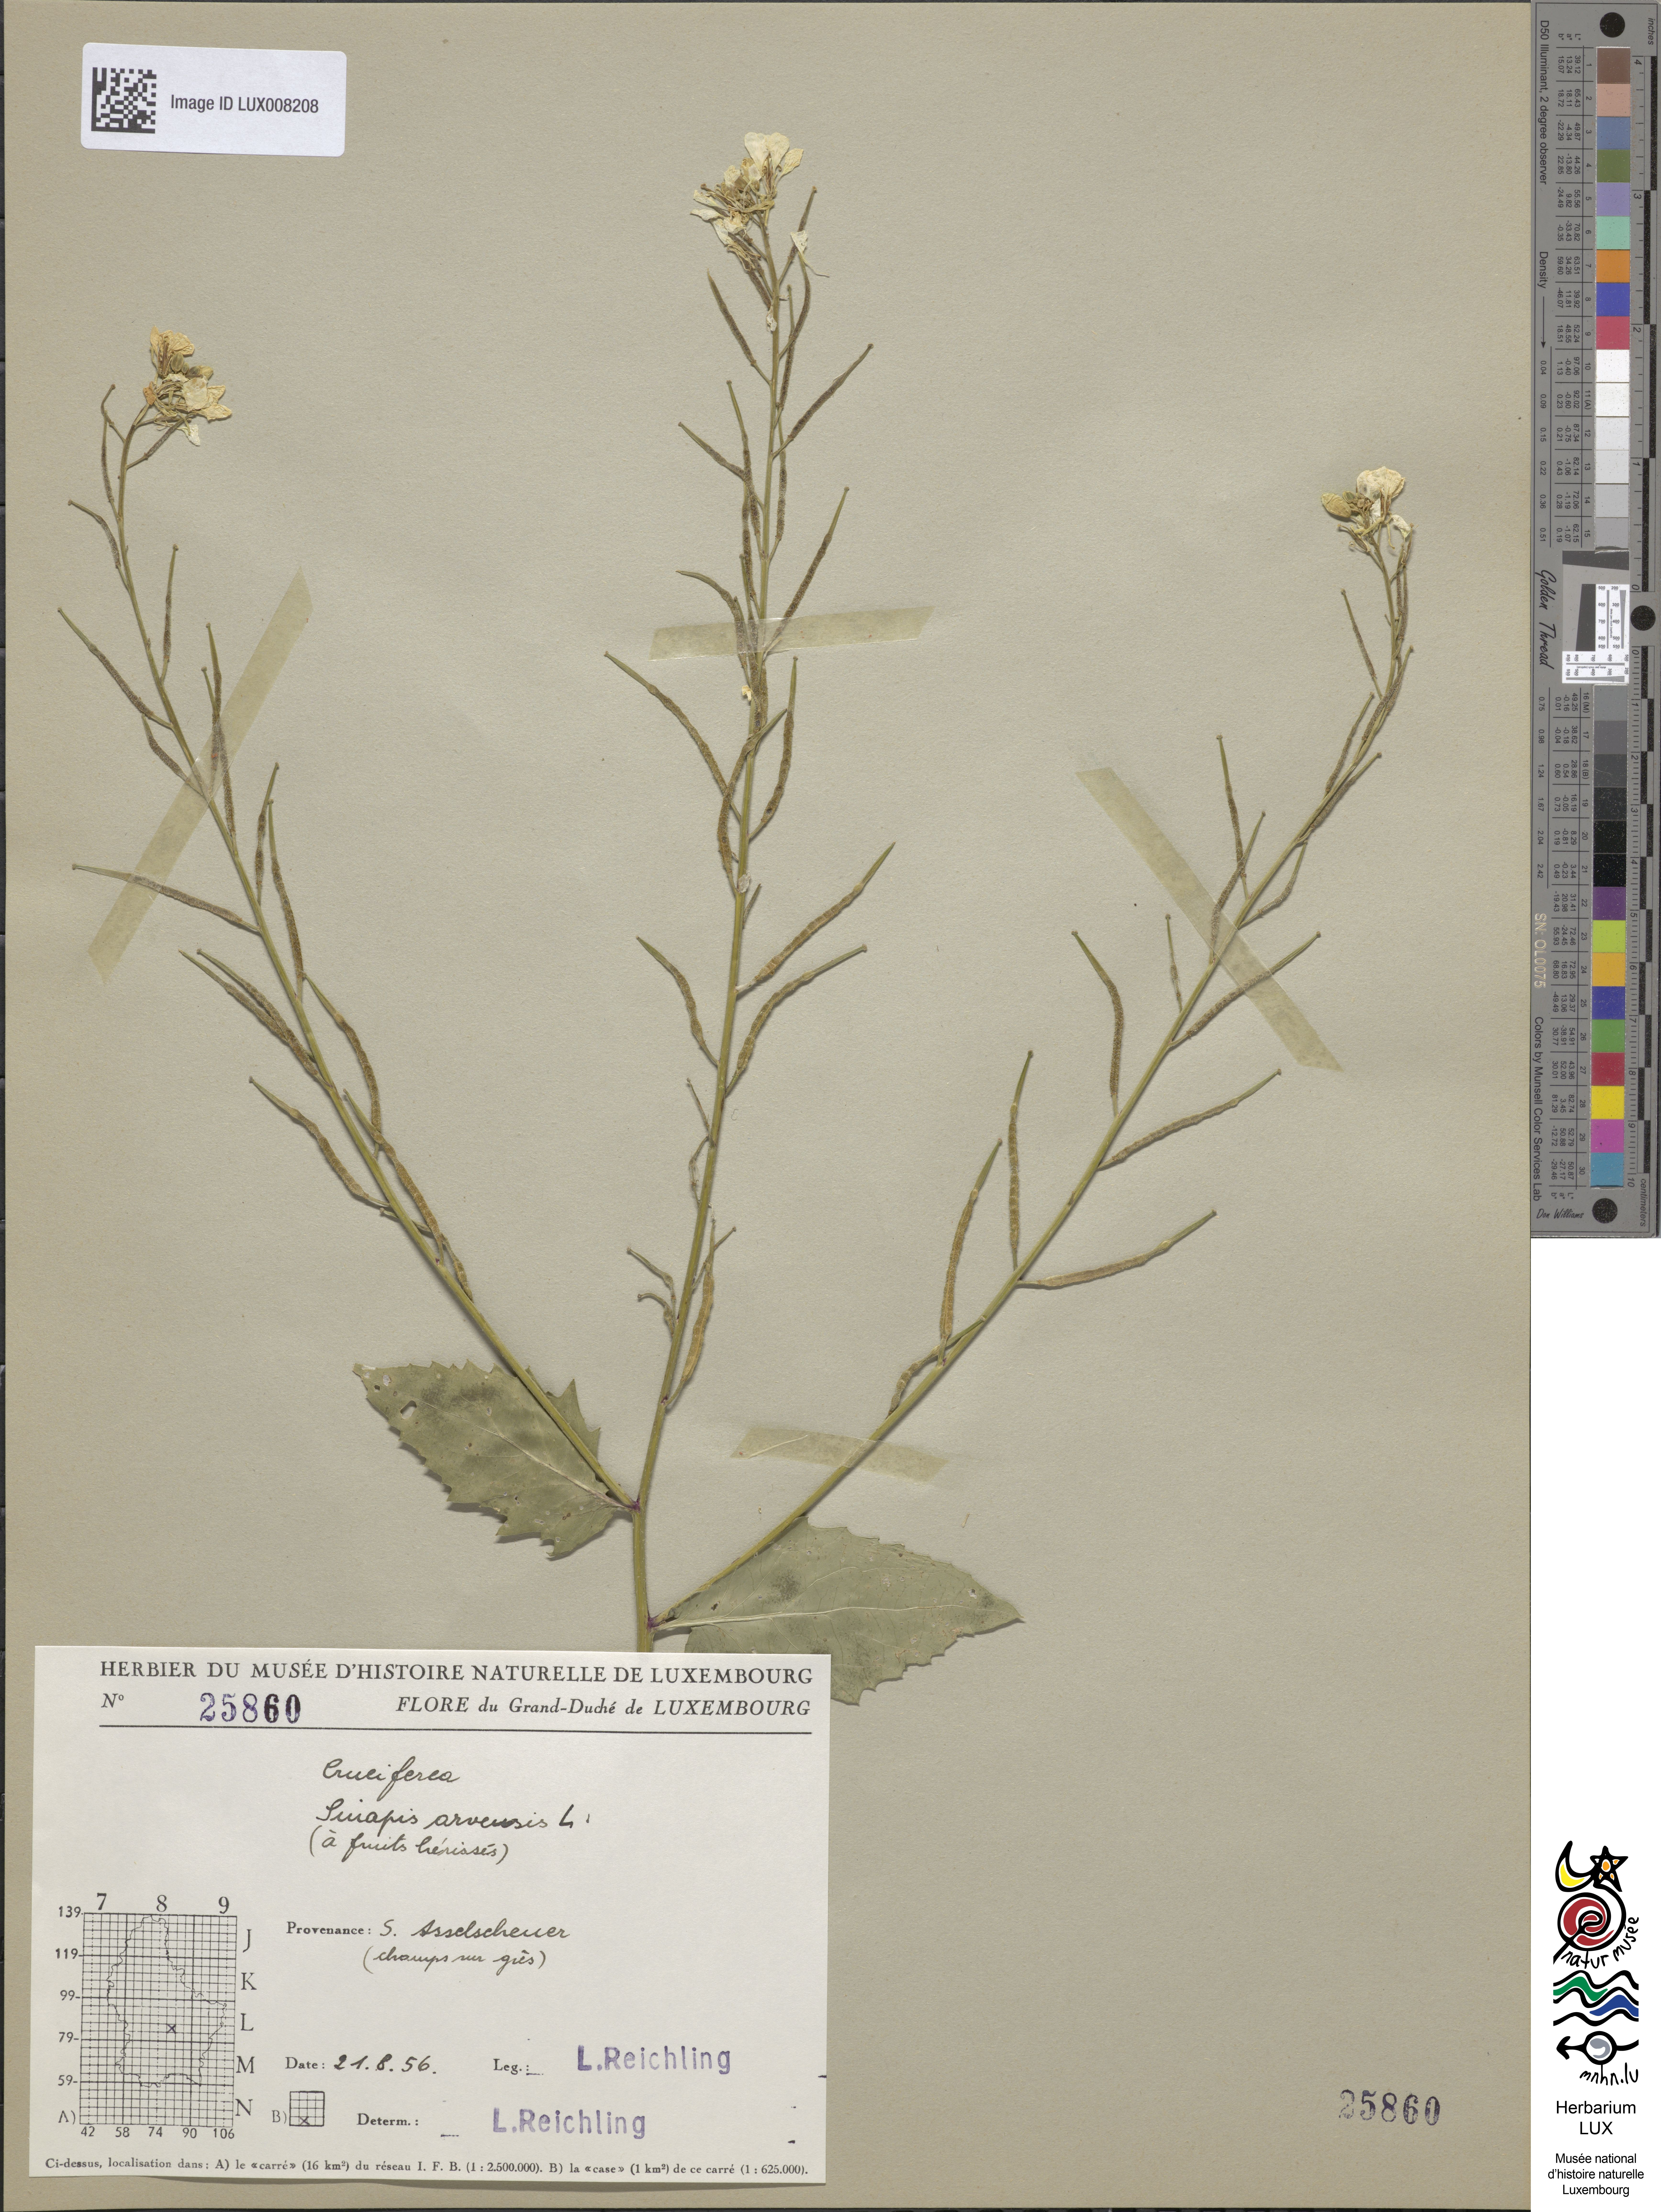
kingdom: Plantae
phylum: Tracheophyta
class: Magnoliopsida
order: Brassicales
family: Brassicaceae
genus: Sinapis
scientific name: Sinapis arvensis
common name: Charlock
